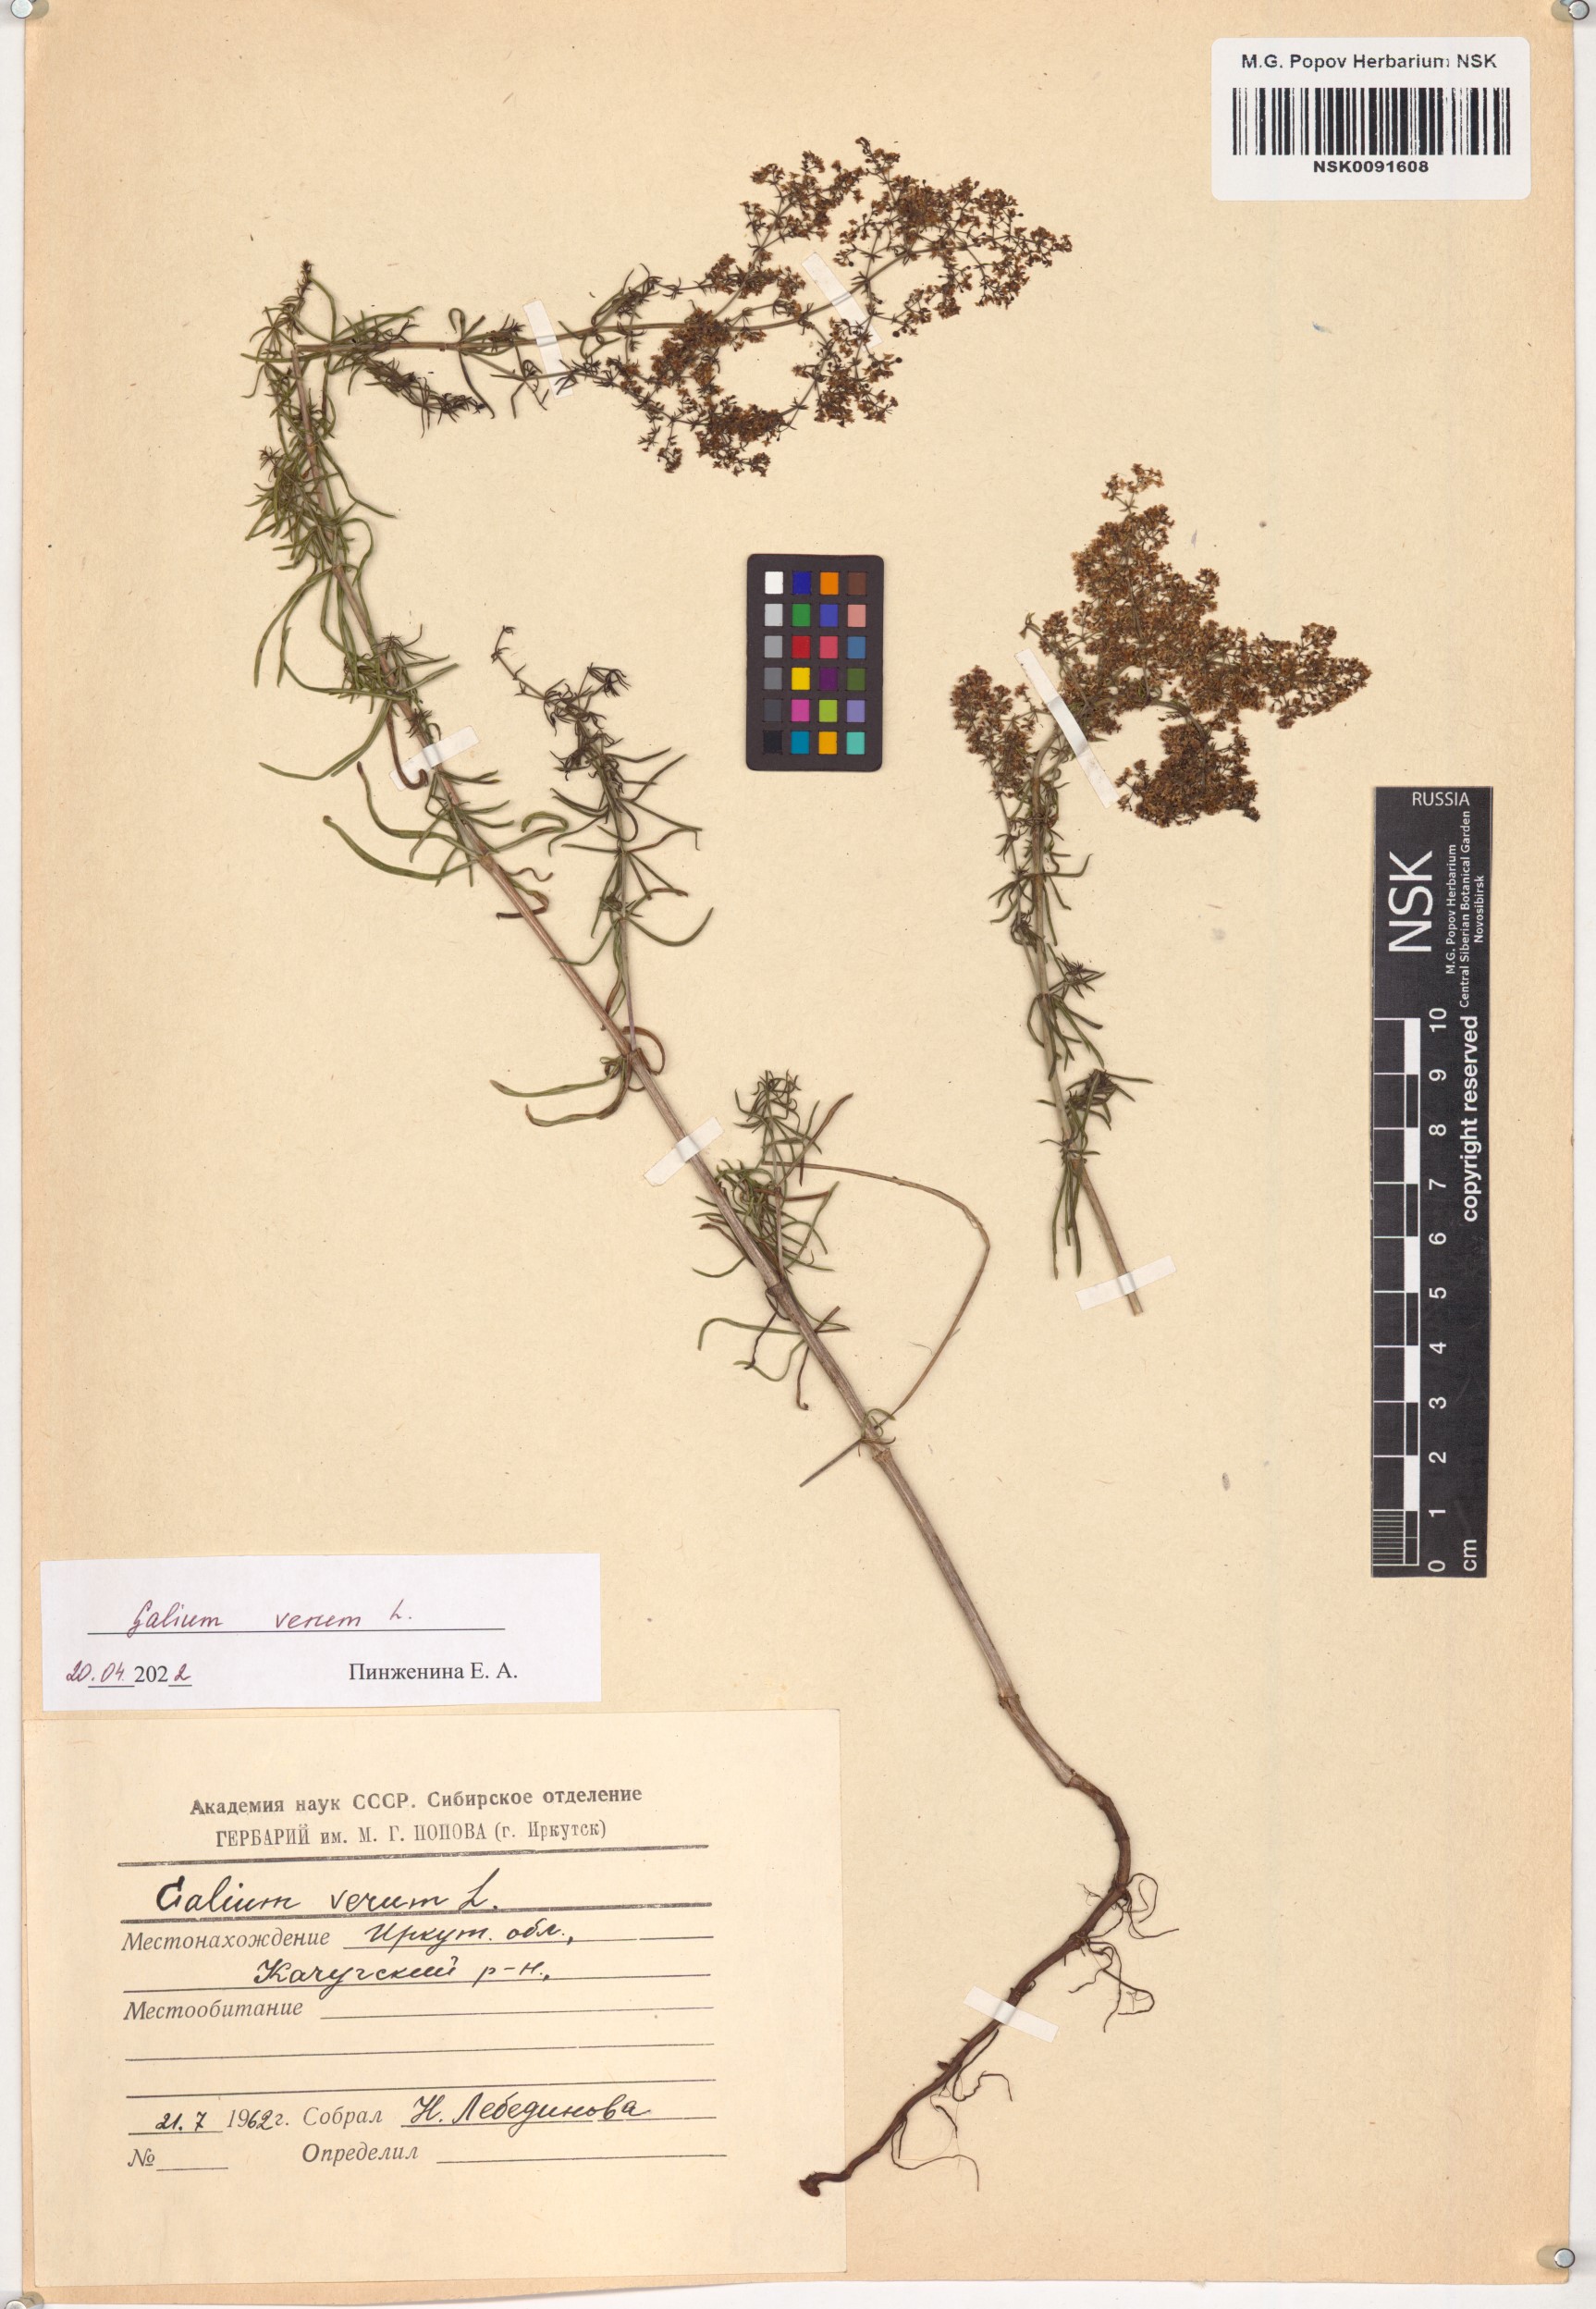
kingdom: Plantae
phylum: Tracheophyta
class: Magnoliopsida
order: Gentianales
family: Rubiaceae
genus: Galium
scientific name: Galium verum
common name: Lady's bedstraw
